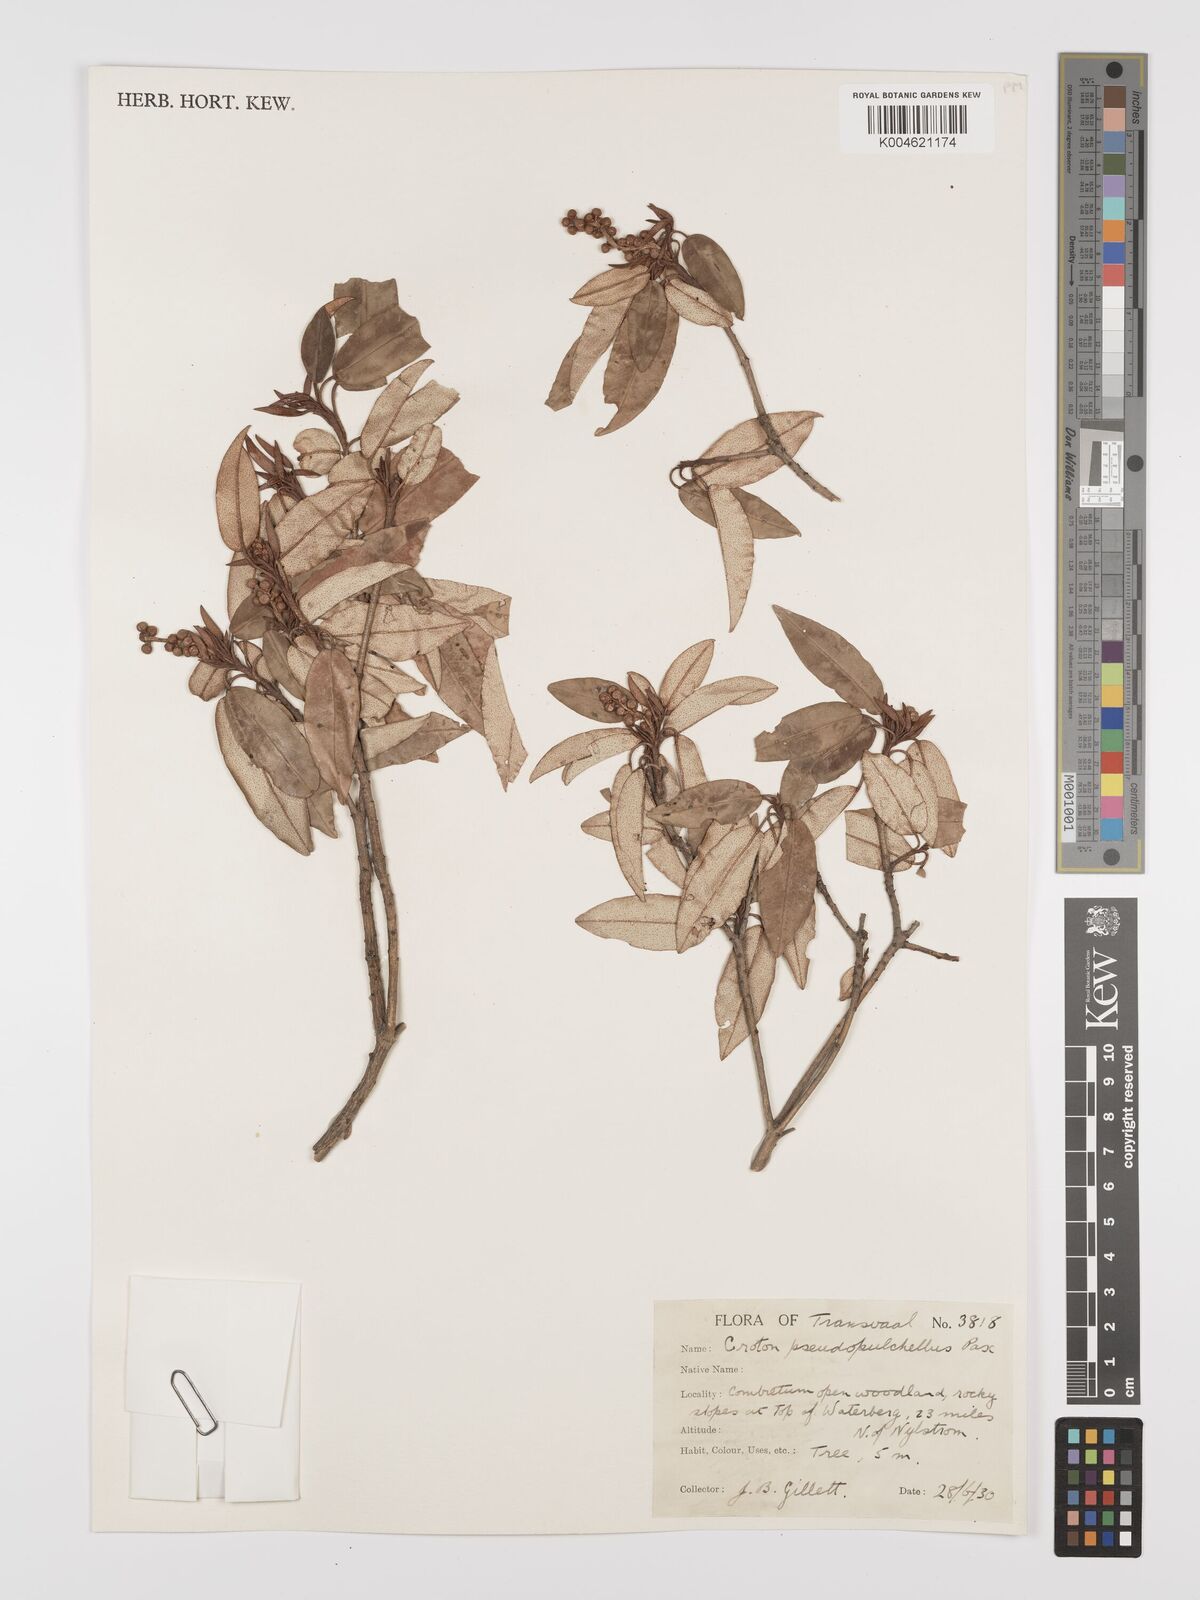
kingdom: Plantae
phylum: Tracheophyta
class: Magnoliopsida
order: Malpighiales
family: Euphorbiaceae
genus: Croton
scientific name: Croton pseudopulchellus
